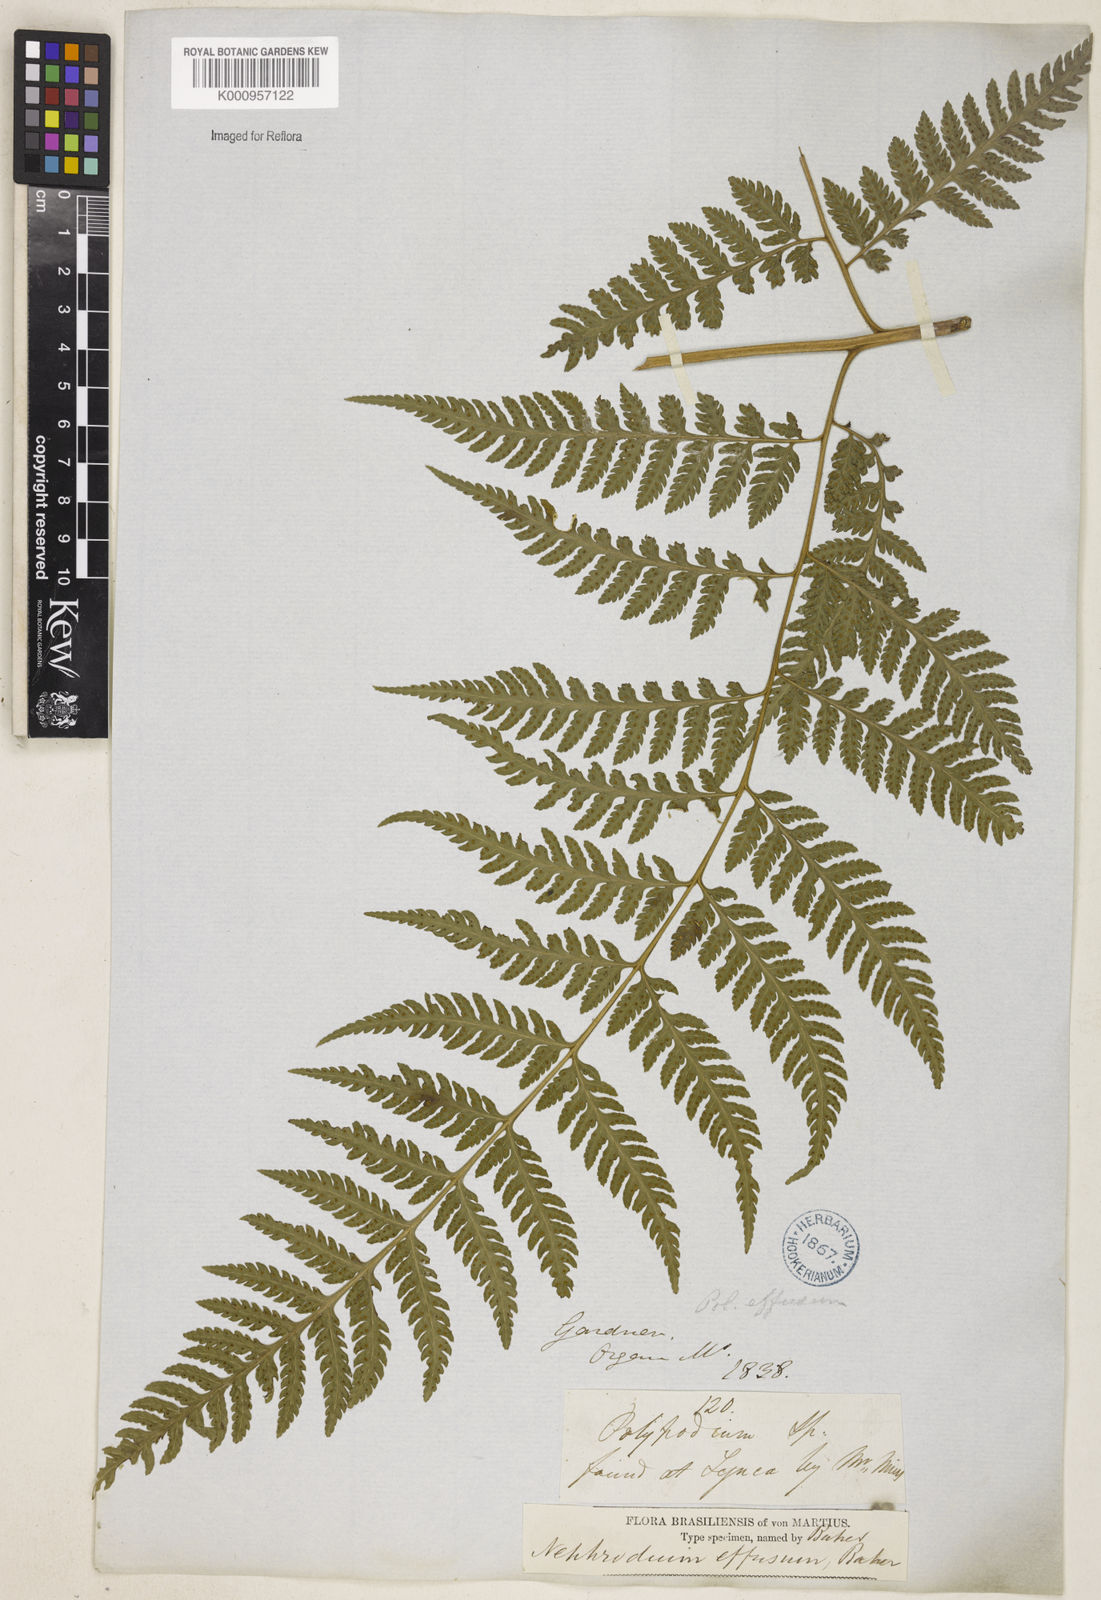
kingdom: Plantae
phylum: Tracheophyta
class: Polypodiopsida
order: Polypodiales
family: Dryopteridaceae
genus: Parapolystichum
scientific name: Parapolystichum effusum
